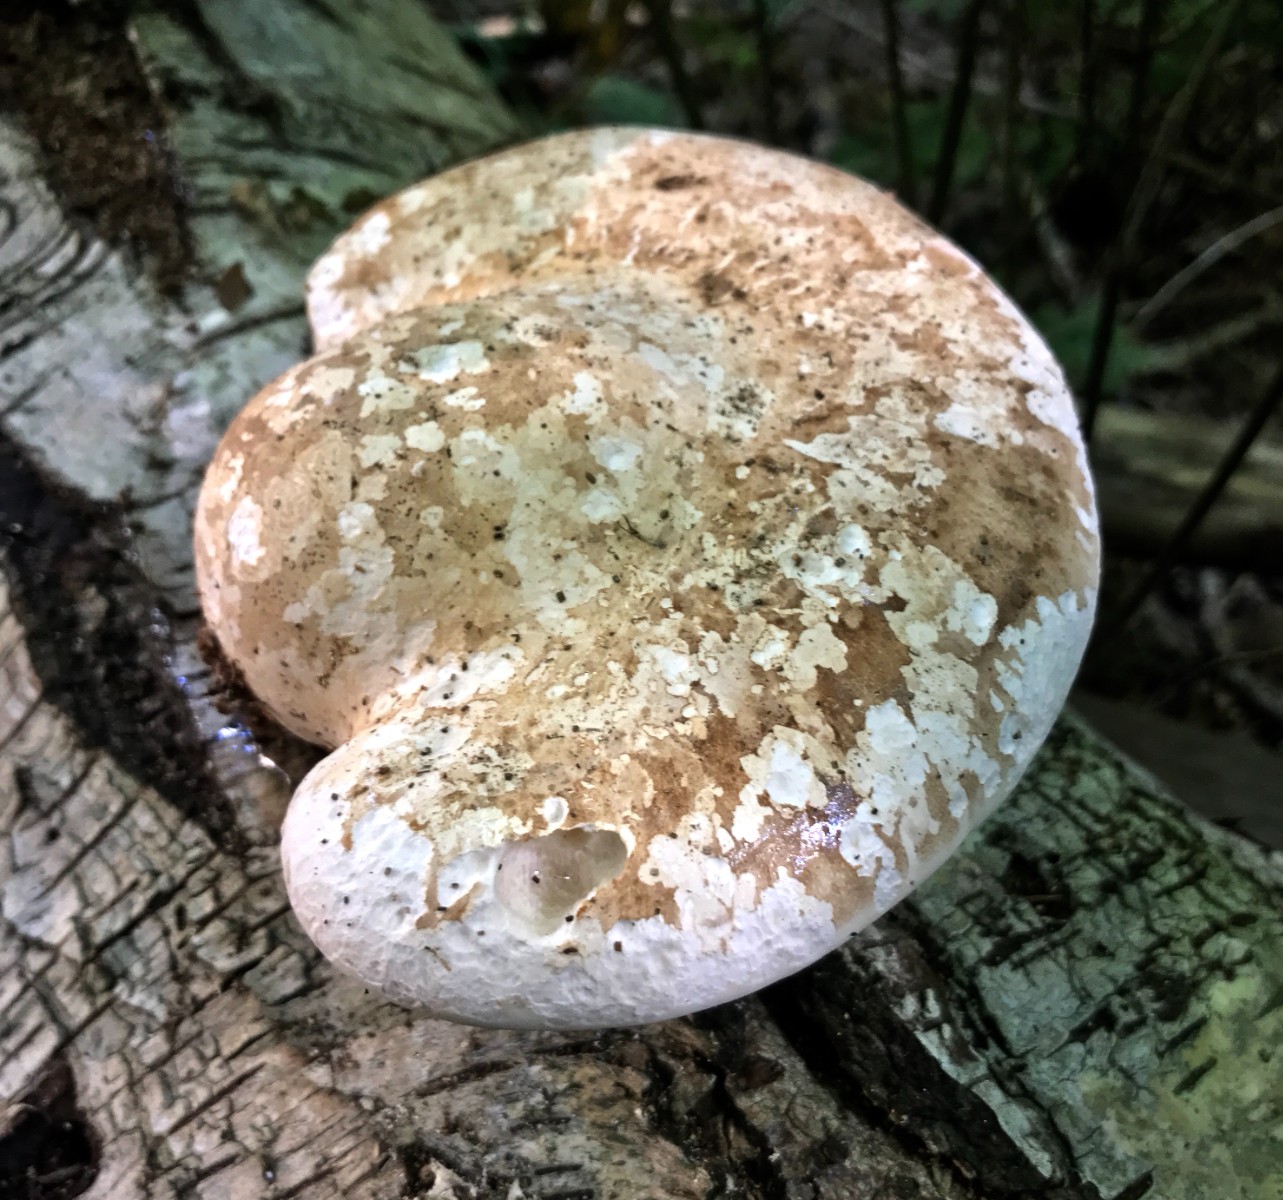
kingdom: Fungi
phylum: Basidiomycota
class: Agaricomycetes
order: Polyporales
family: Fomitopsidaceae
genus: Fomitopsis
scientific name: Fomitopsis betulina
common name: birkeporesvamp
